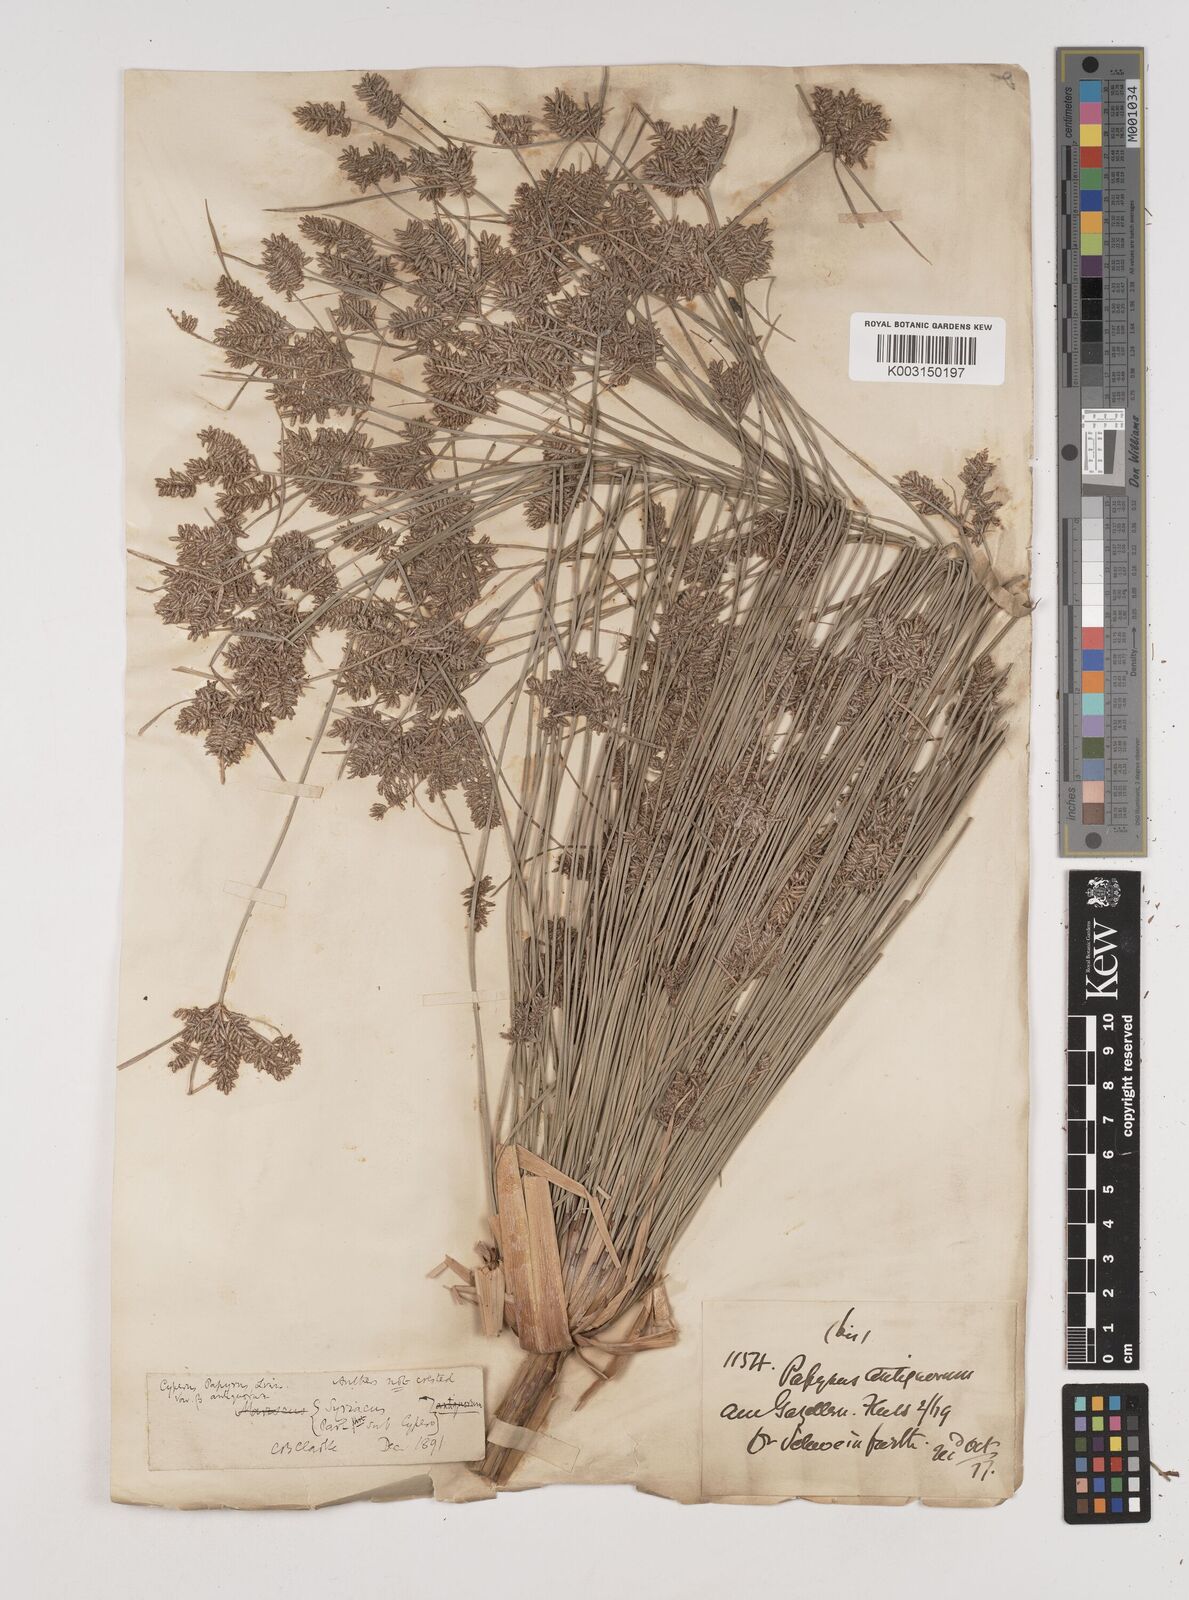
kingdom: Plantae
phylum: Tracheophyta
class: Liliopsida
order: Poales
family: Cyperaceae
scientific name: Cyperaceae
